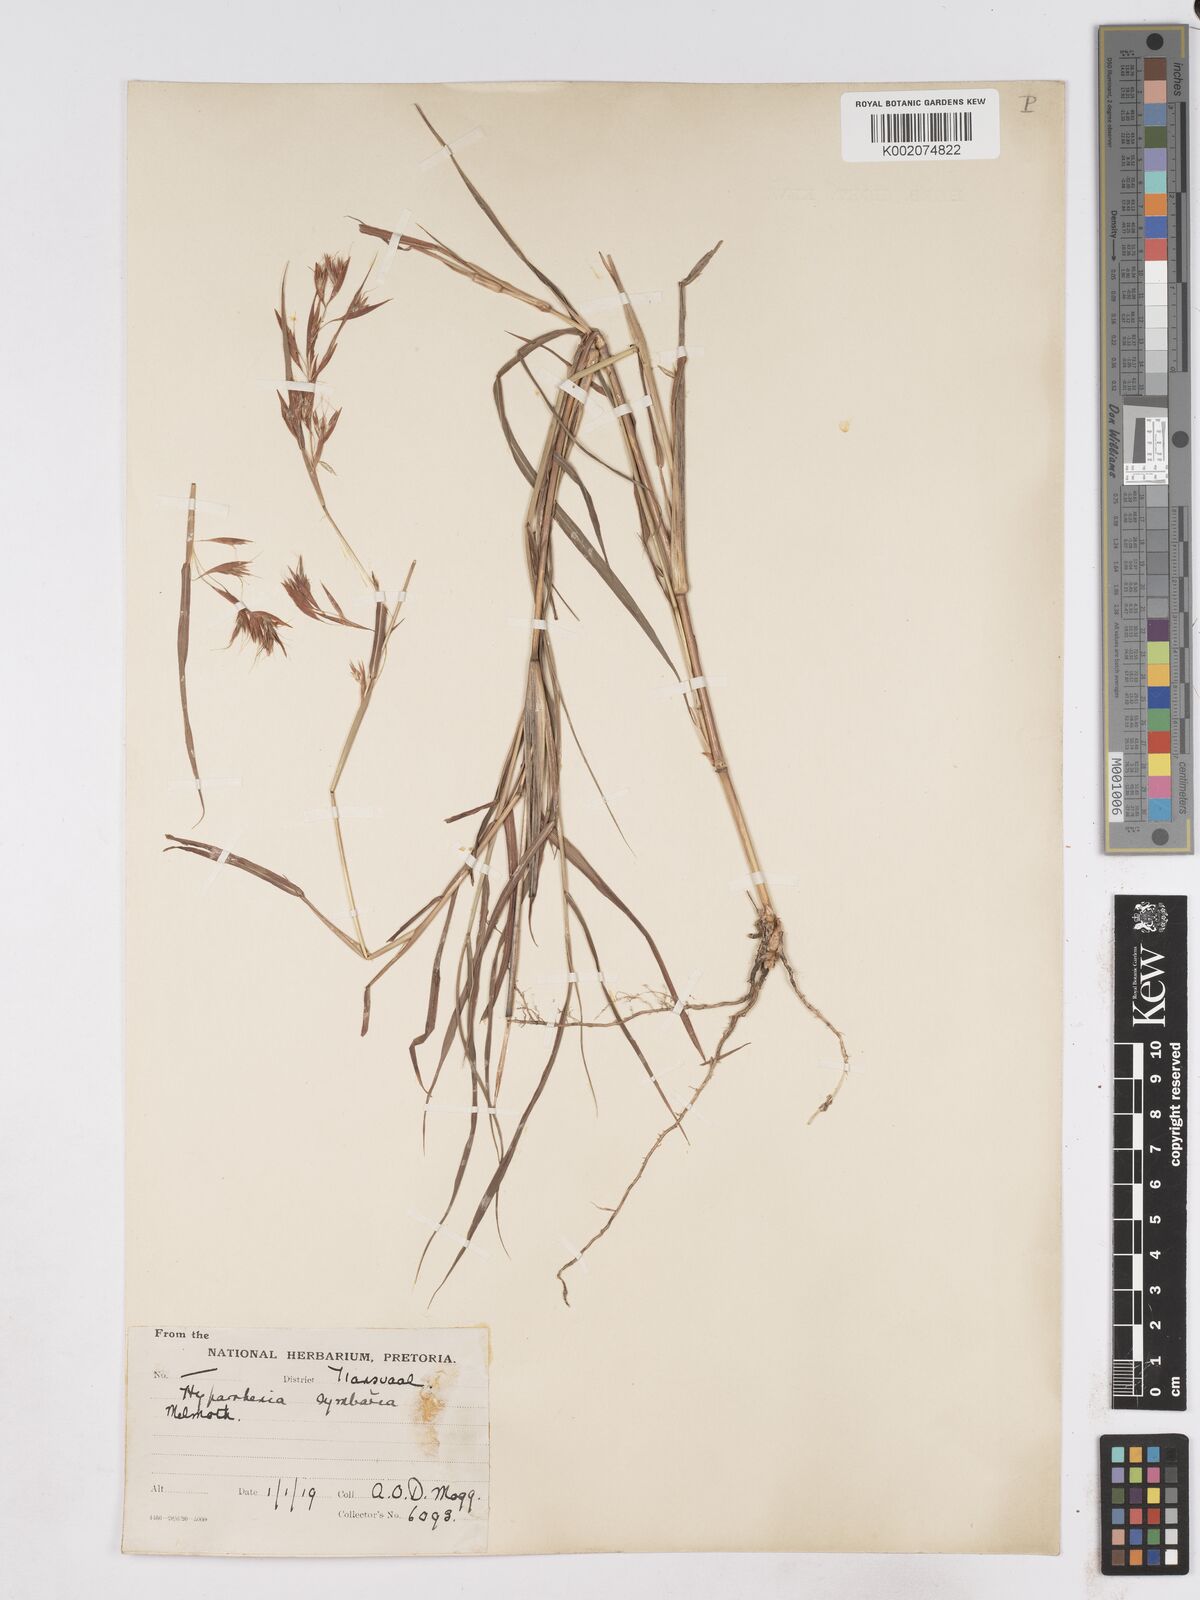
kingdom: Plantae
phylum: Tracheophyta
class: Liliopsida
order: Poales
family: Poaceae
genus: Hyparrhenia
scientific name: Hyparrhenia cymbaria
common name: Boat thatching grass
